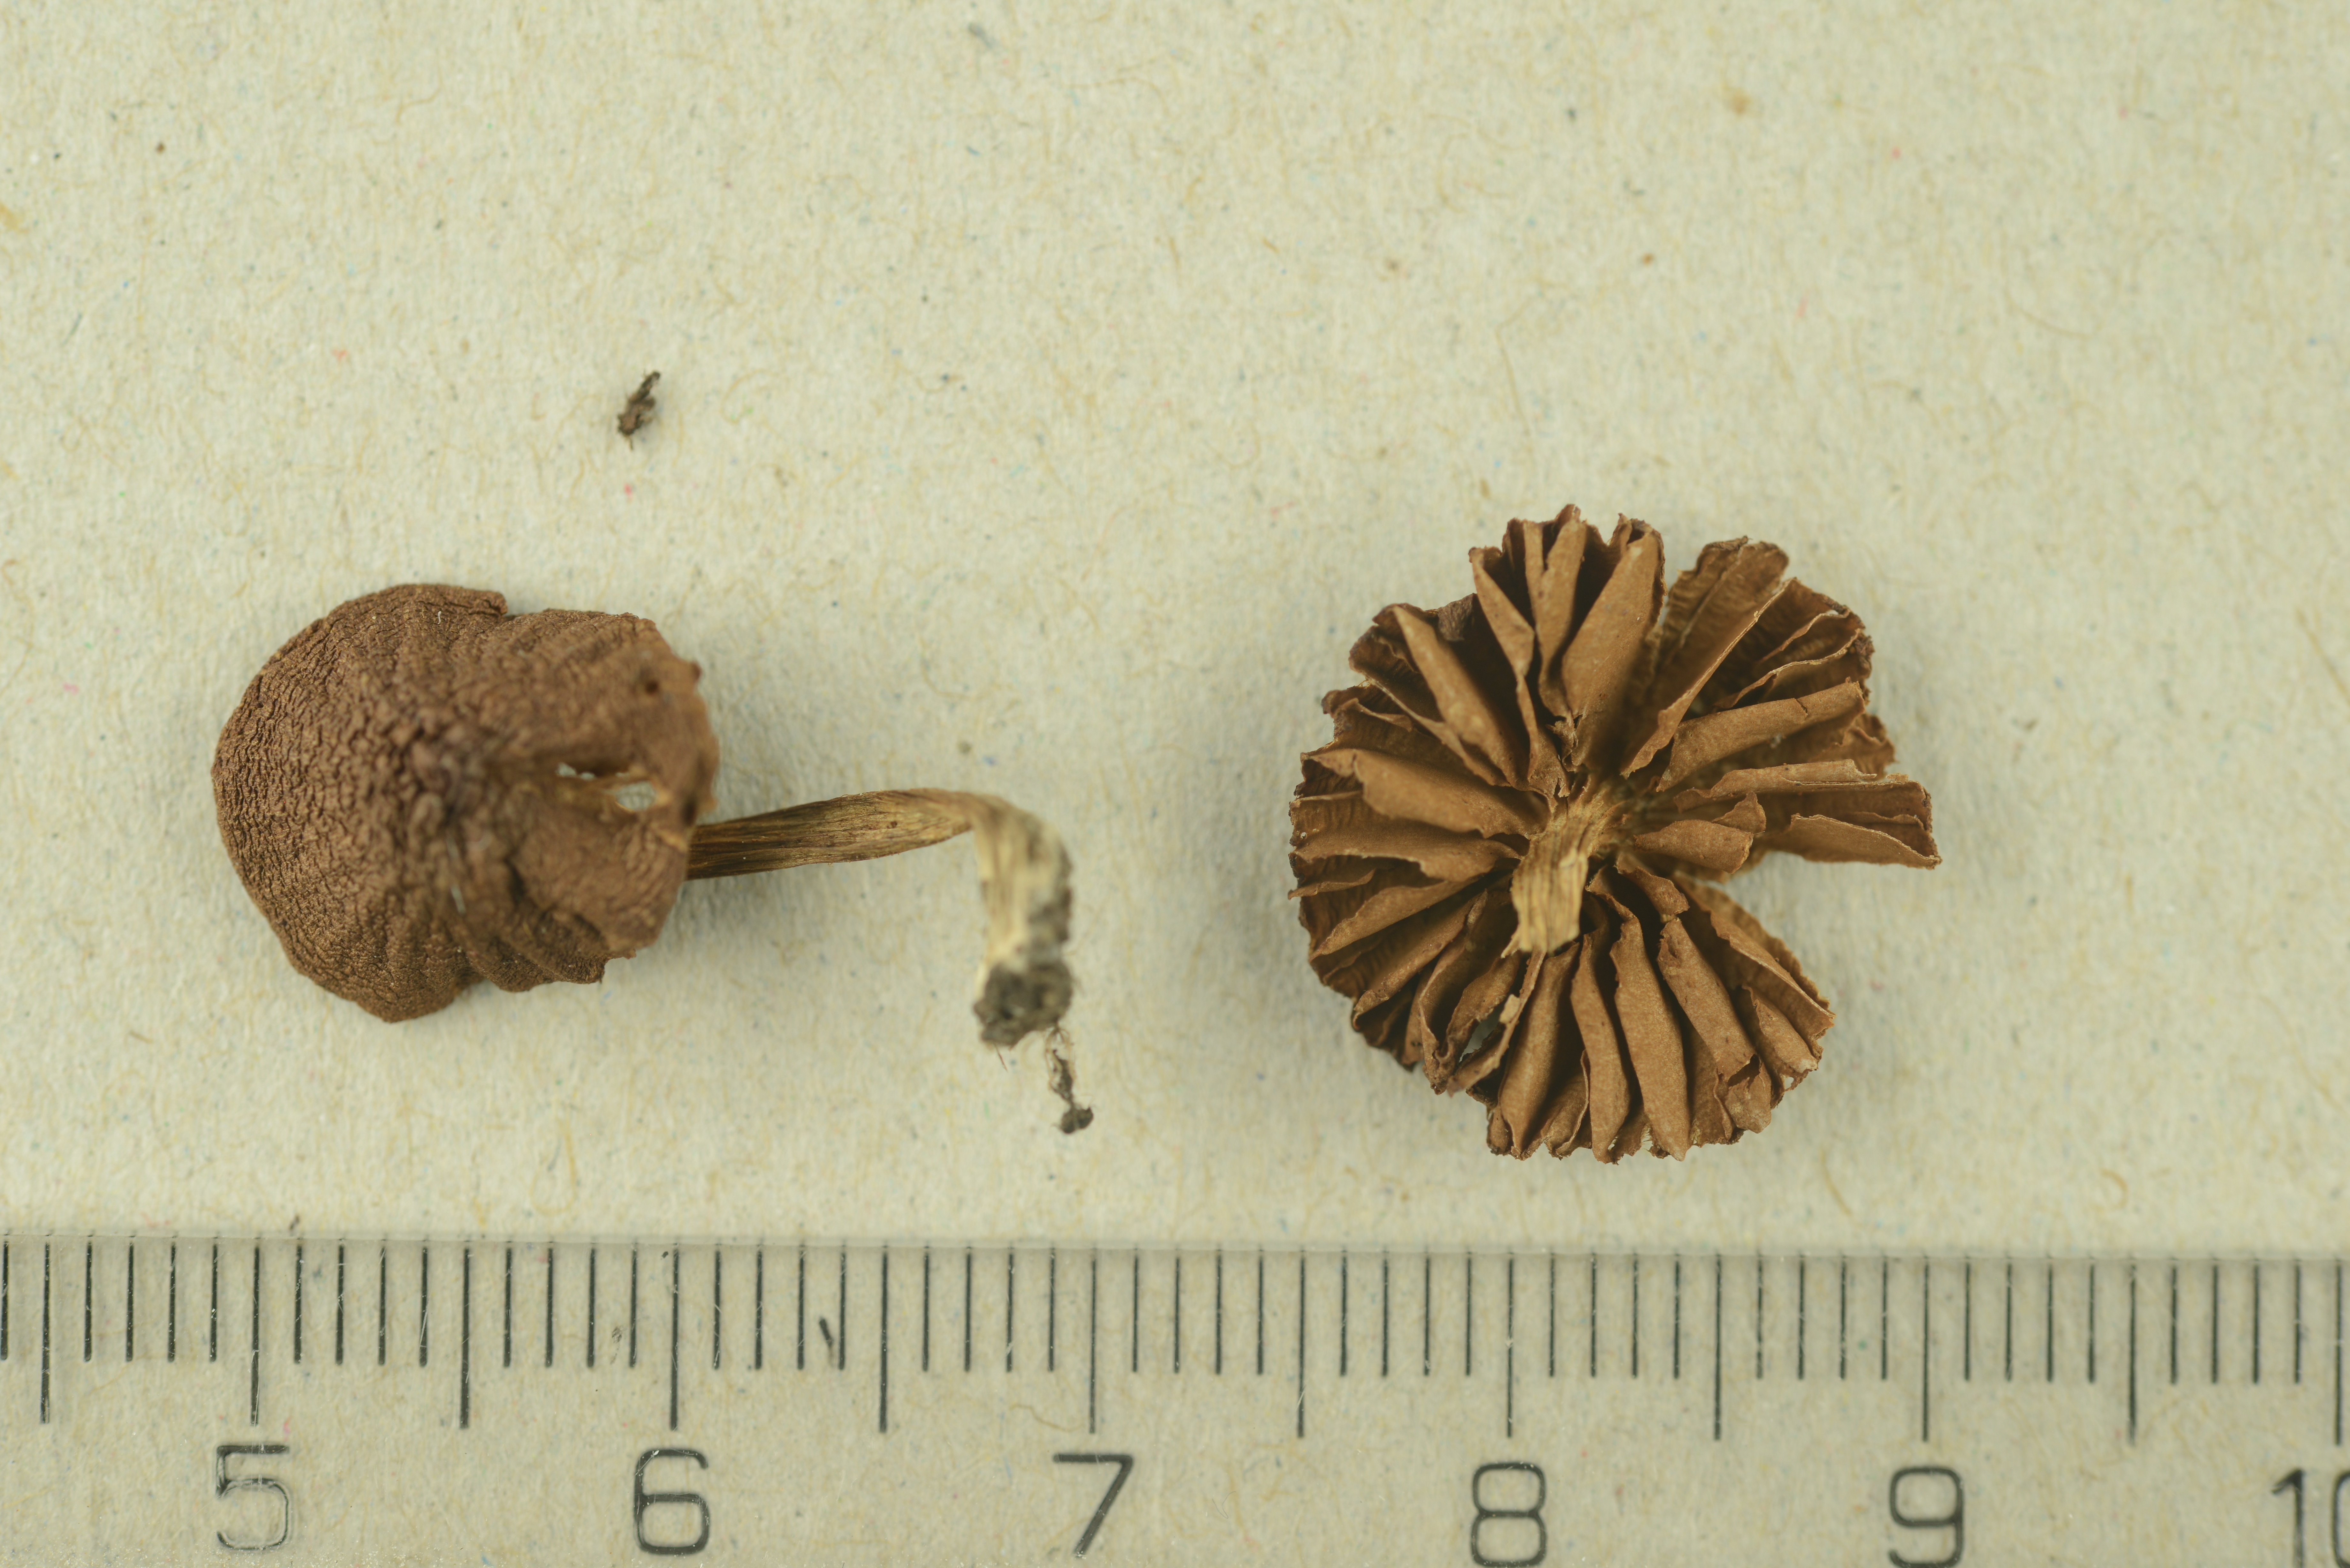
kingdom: Fungi
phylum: Basidiomycota
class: Agaricomycetes
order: Agaricales
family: Cortinariaceae
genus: Cortinarius
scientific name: Cortinarius saniosus
